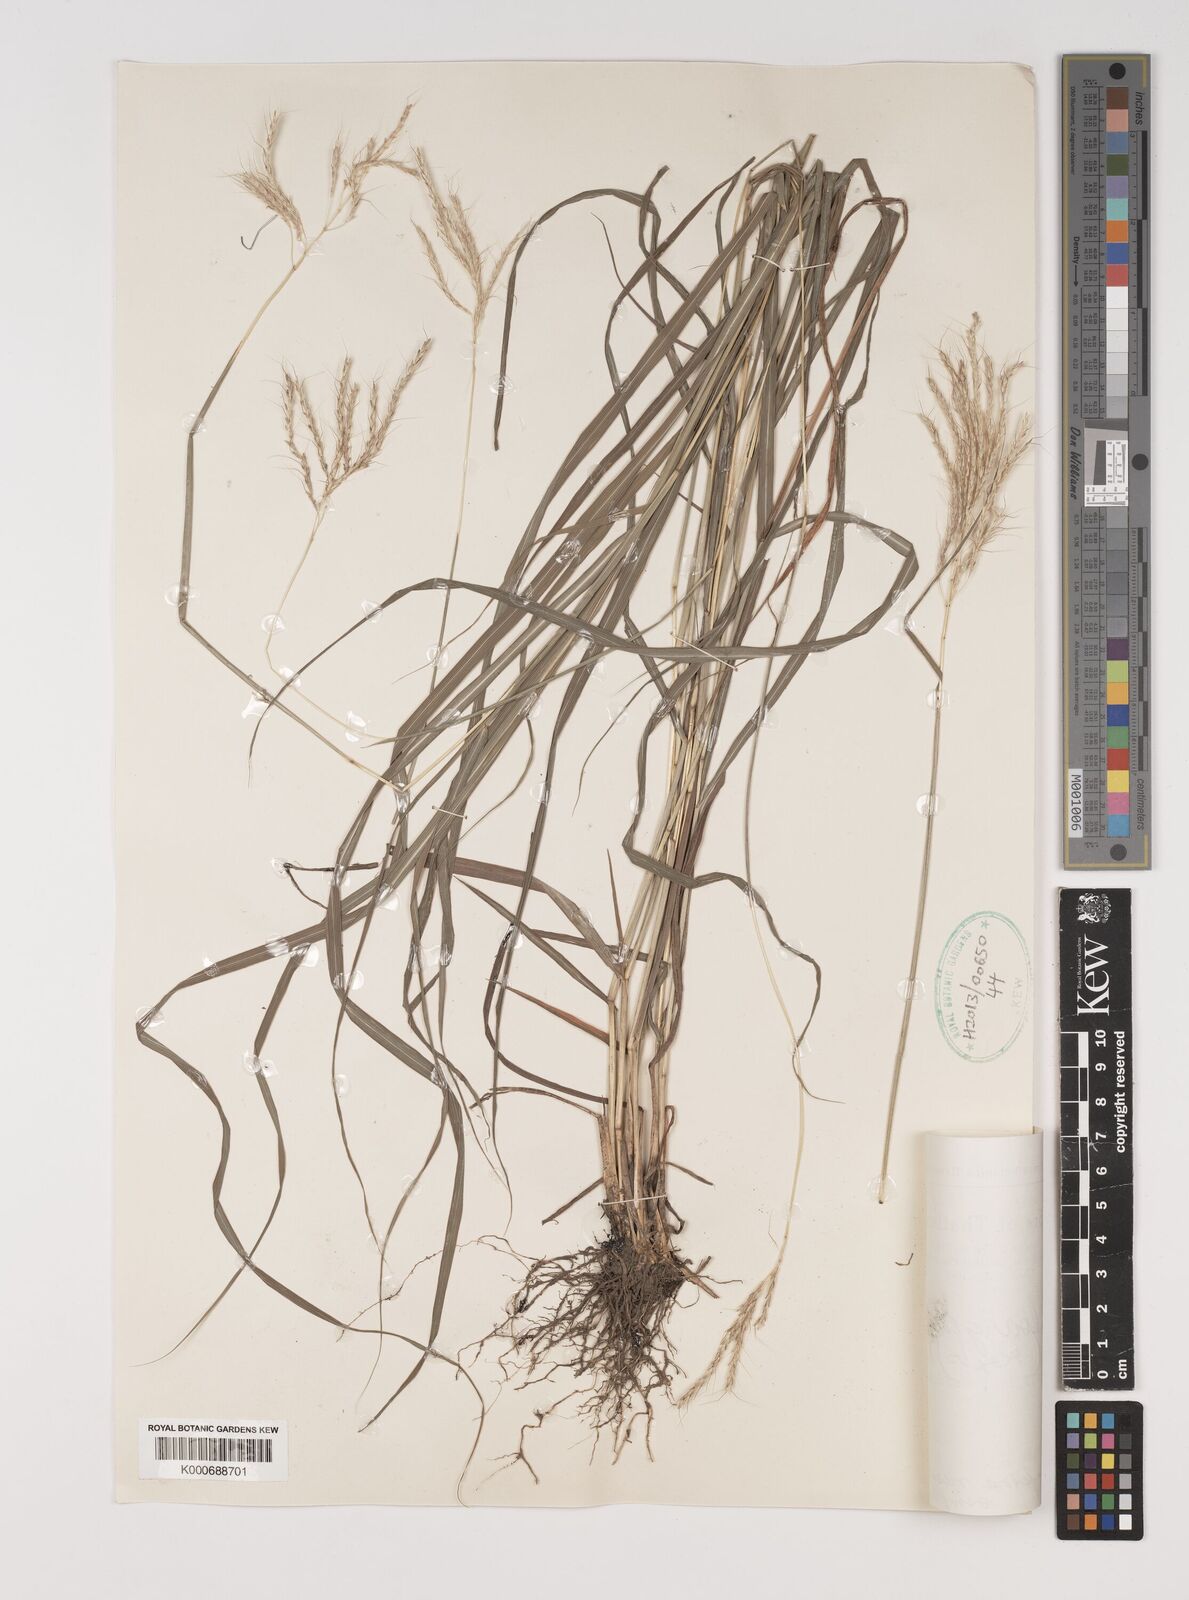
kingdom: Plantae
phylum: Tracheophyta
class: Liliopsida
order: Poales
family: Poaceae
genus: Bothriochloa
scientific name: Bothriochloa bladhii
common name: Caucasian bluestem
